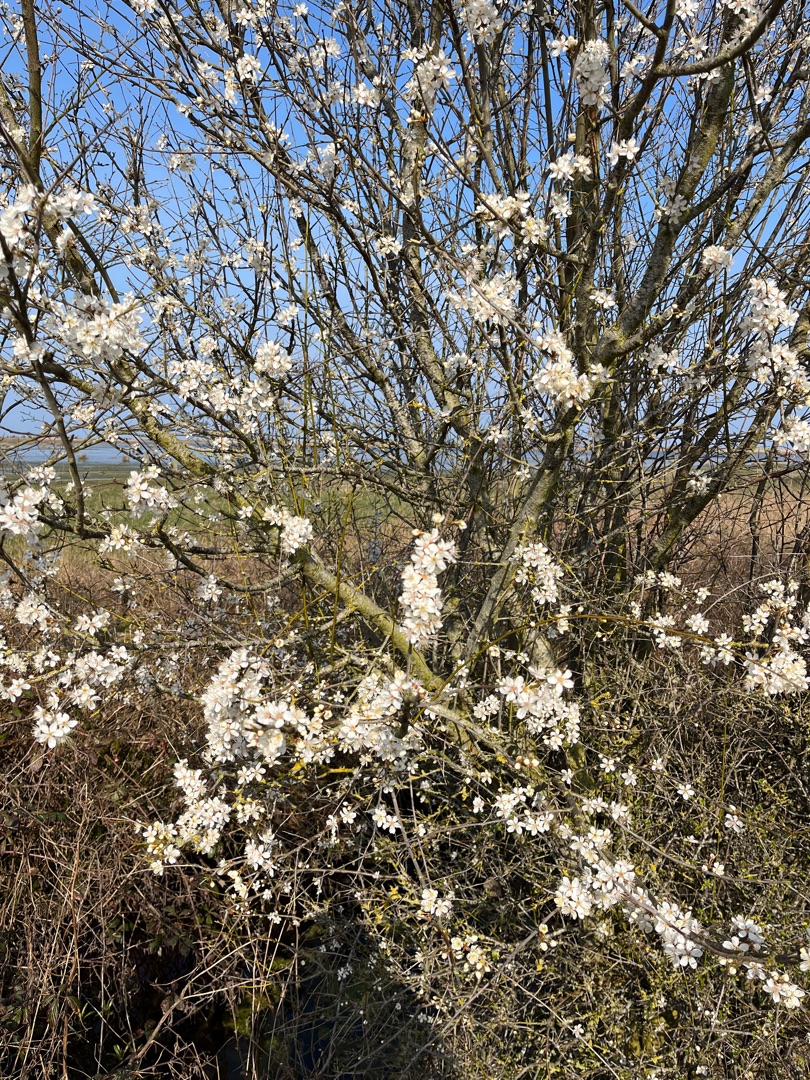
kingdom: Plantae
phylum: Tracheophyta
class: Magnoliopsida
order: Rosales
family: Rosaceae
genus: Prunus
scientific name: Prunus cerasifera
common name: Mirabel
